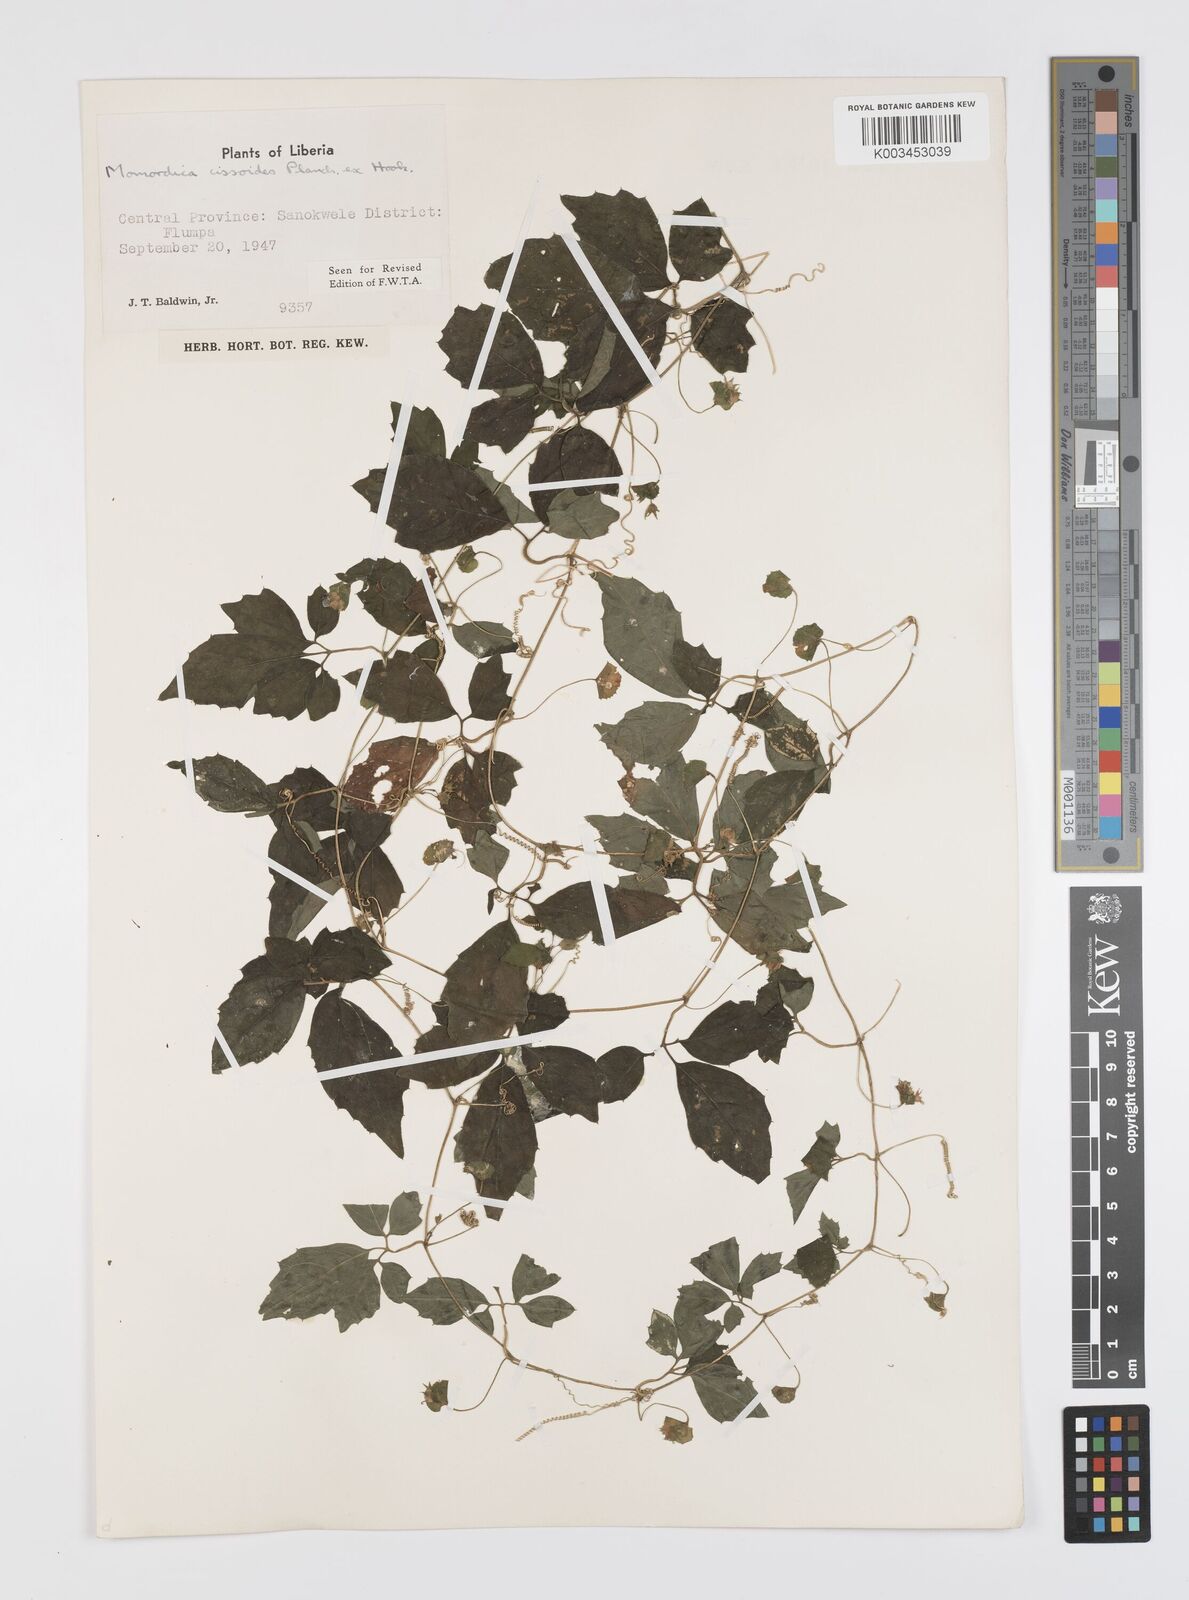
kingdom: Plantae
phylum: Tracheophyta
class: Magnoliopsida
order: Cucurbitales
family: Cucurbitaceae
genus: Momordica
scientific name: Momordica cissoides
